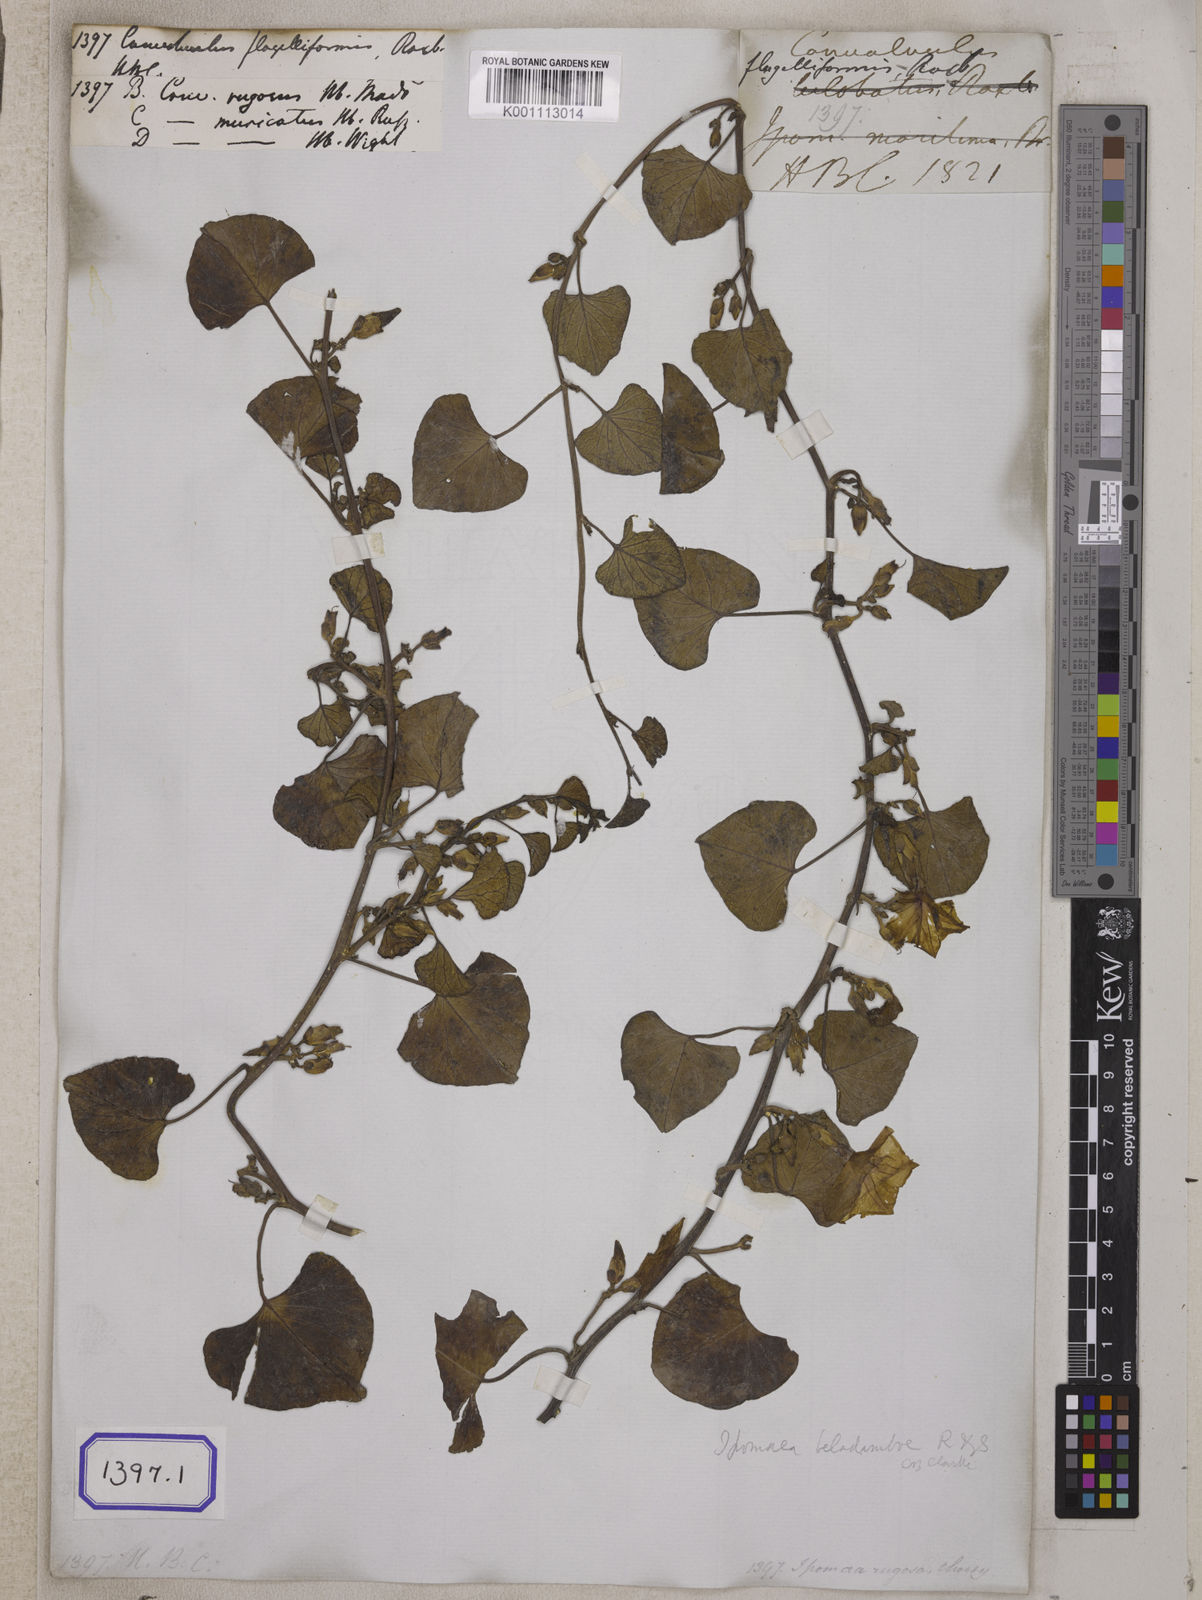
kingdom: Plantae
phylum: Tracheophyta
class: Magnoliopsida
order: Solanales
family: Convolvulaceae
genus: Ipomoea
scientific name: Ipomoea asarifolia
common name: Ginger-leaf morning-glory
